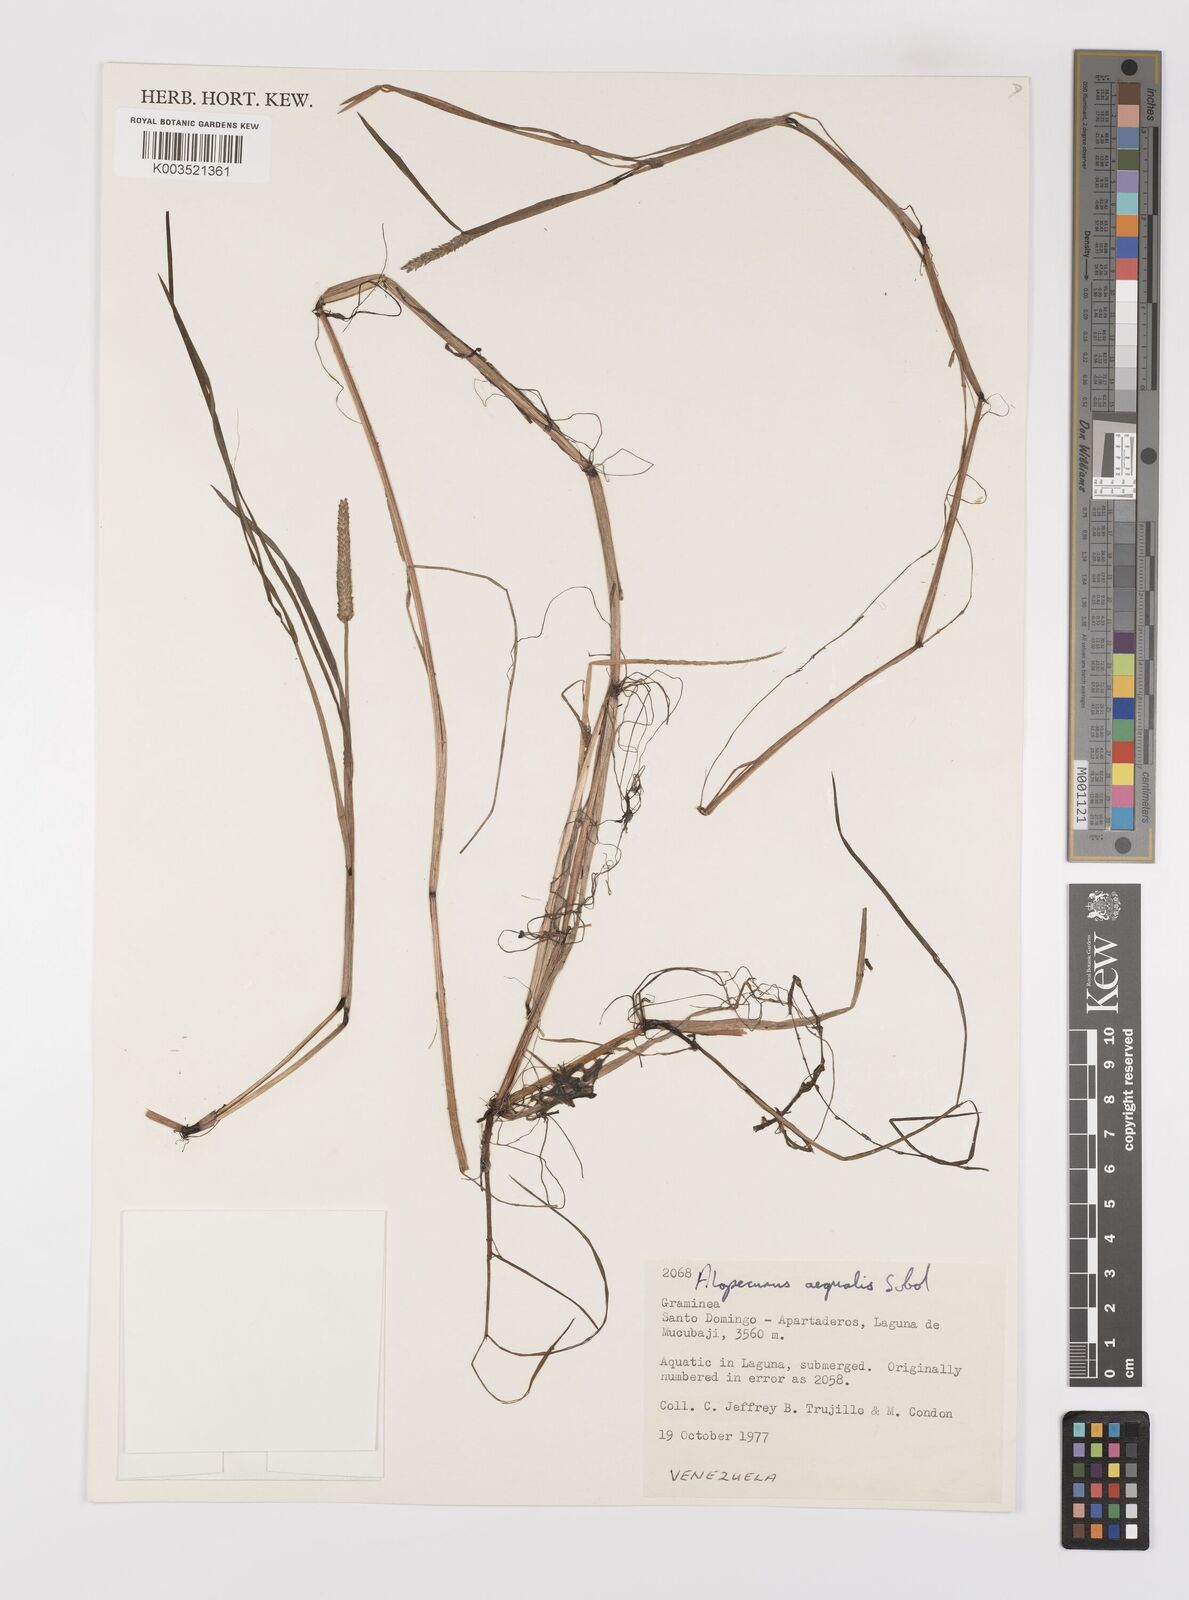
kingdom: Plantae
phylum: Tracheophyta
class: Liliopsida
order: Poales
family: Poaceae
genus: Alopecurus
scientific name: Alopecurus aequalis
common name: Orange foxtail
